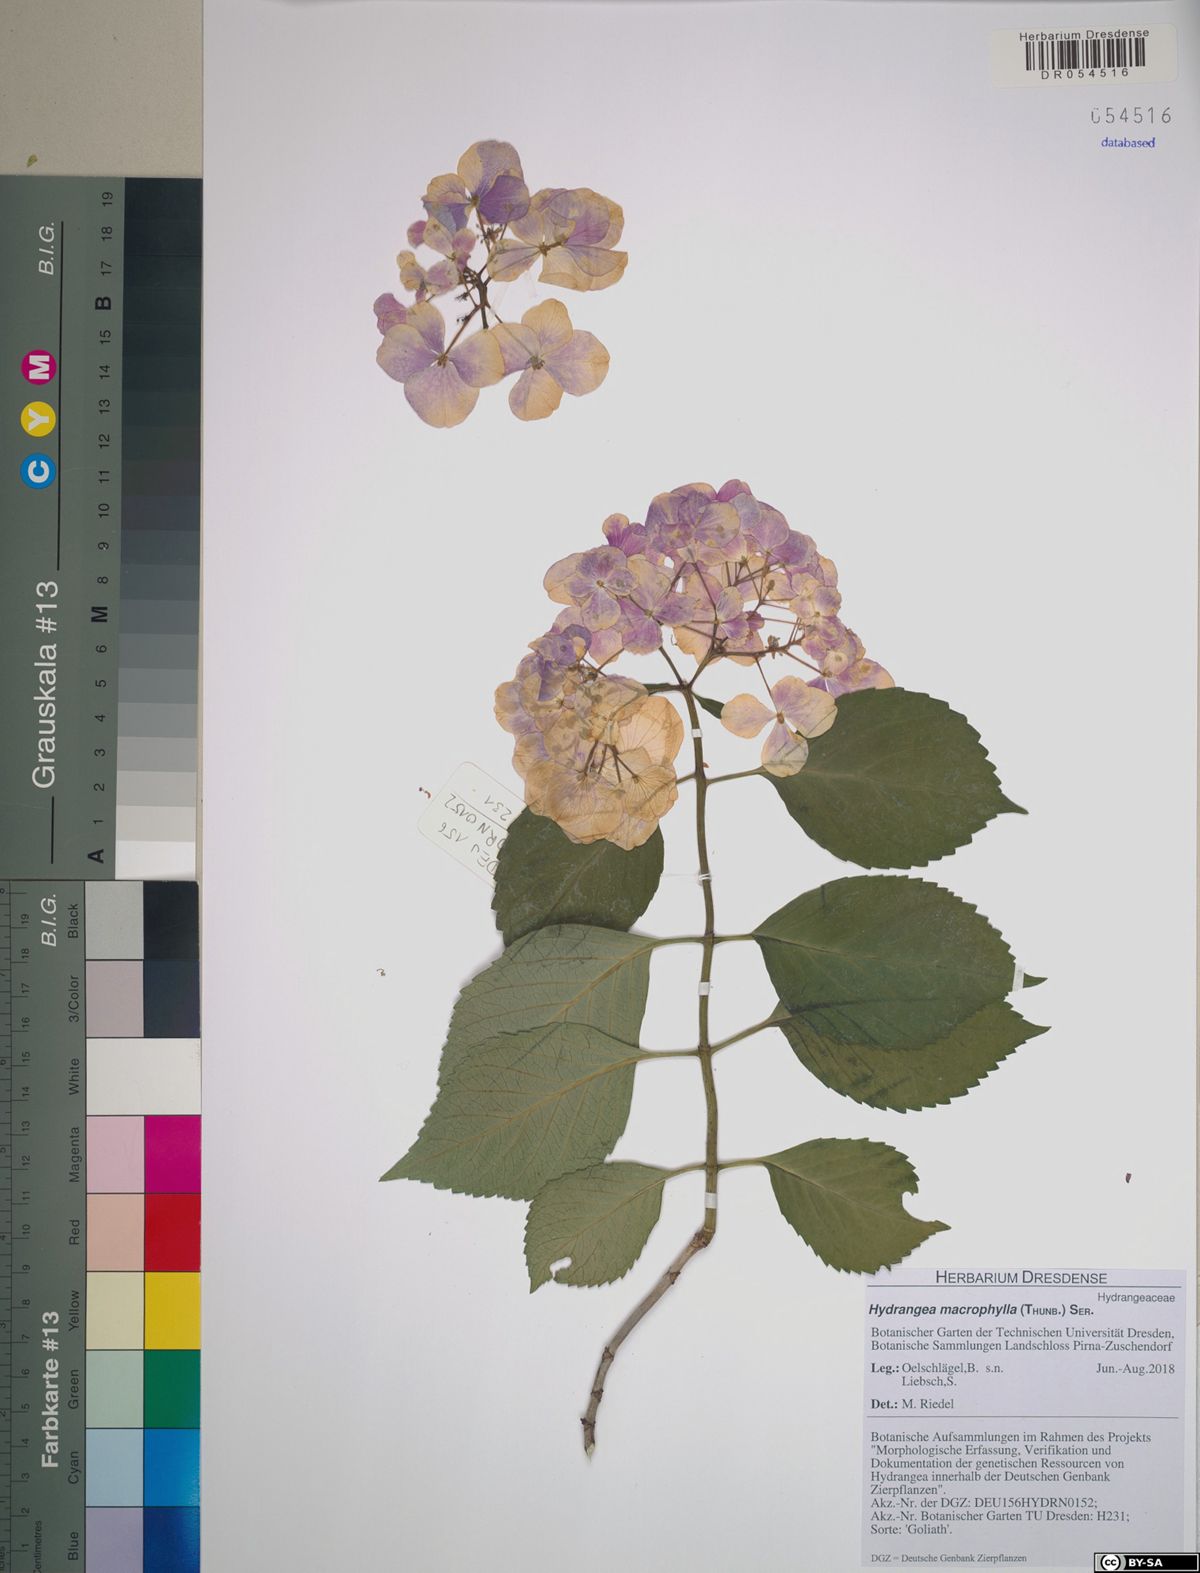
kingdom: Plantae
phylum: Tracheophyta
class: Magnoliopsida
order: Cornales
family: Hydrangeaceae
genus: Hydrangea
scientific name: Hydrangea macrophylla
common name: Hydrangea
